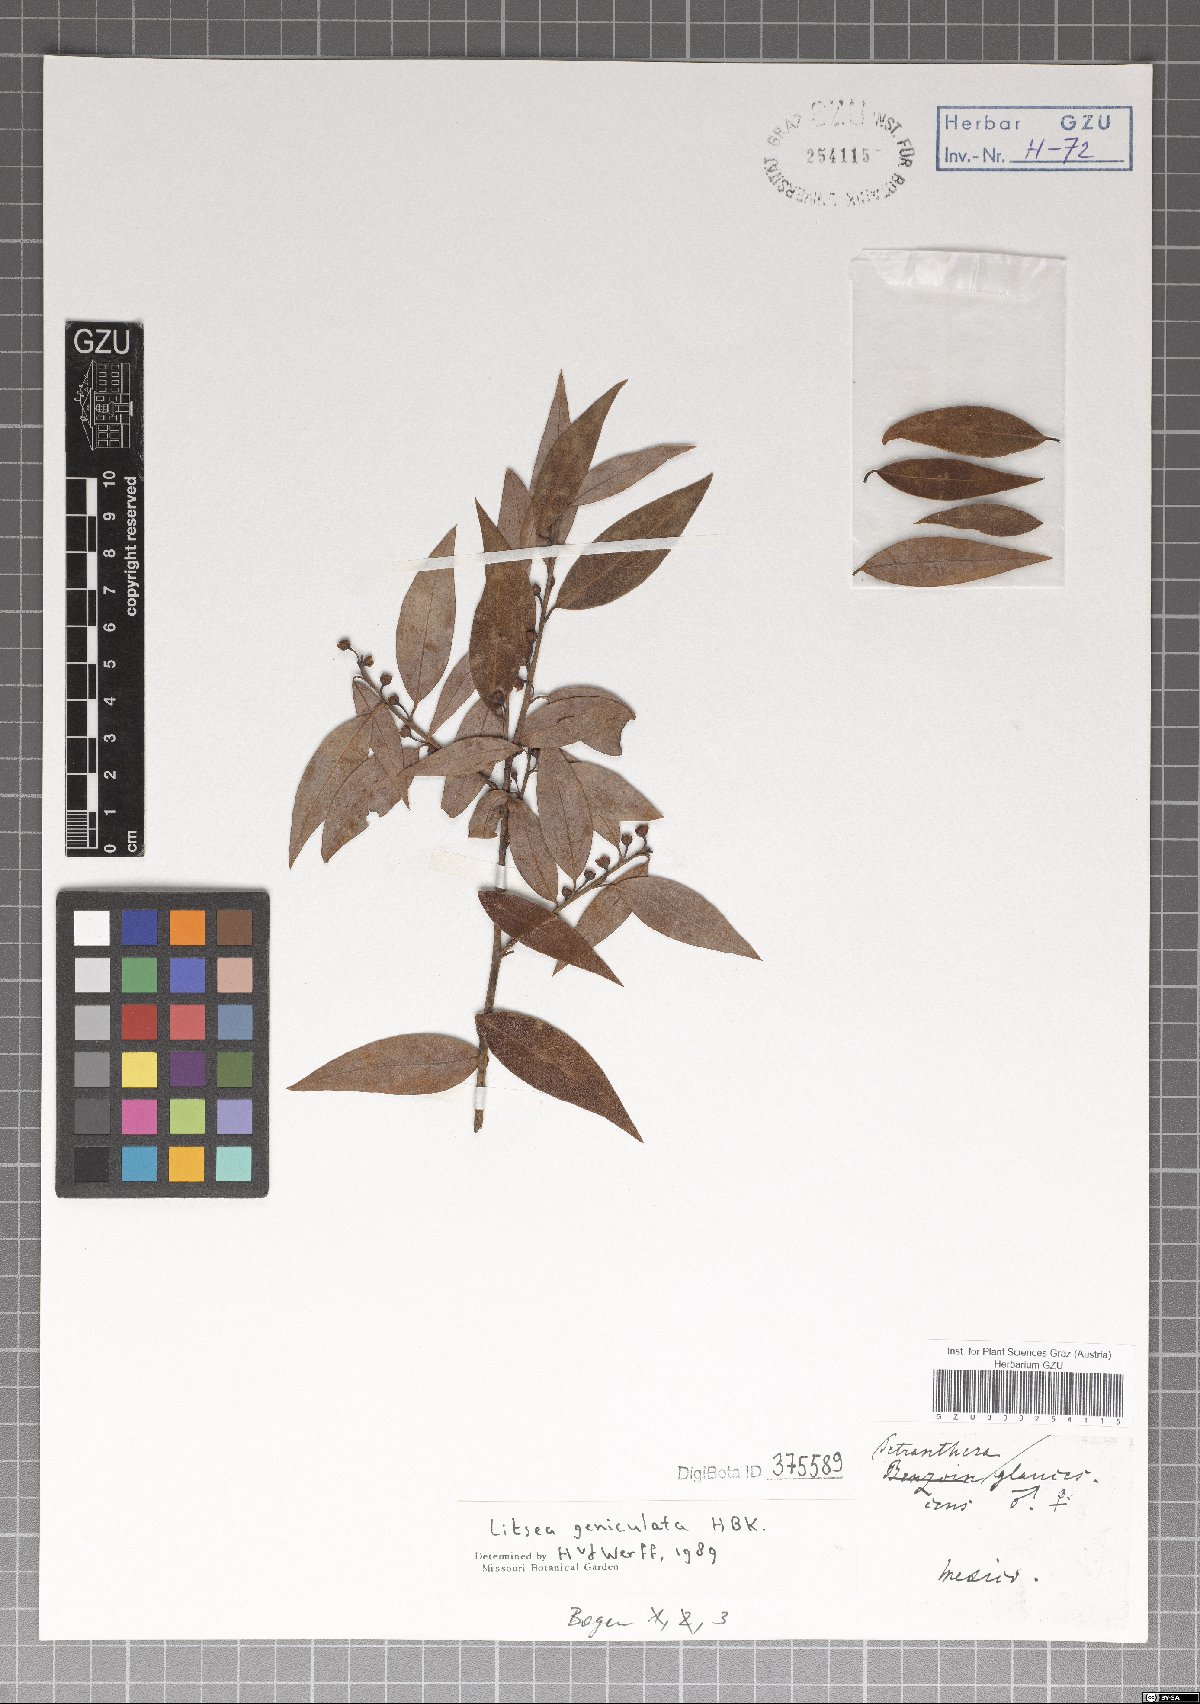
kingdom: Plantae
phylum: Tracheophyta
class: Magnoliopsida
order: Laurales
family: Lauraceae
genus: Litsea
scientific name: Litsea aestivalis
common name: Pondspice
